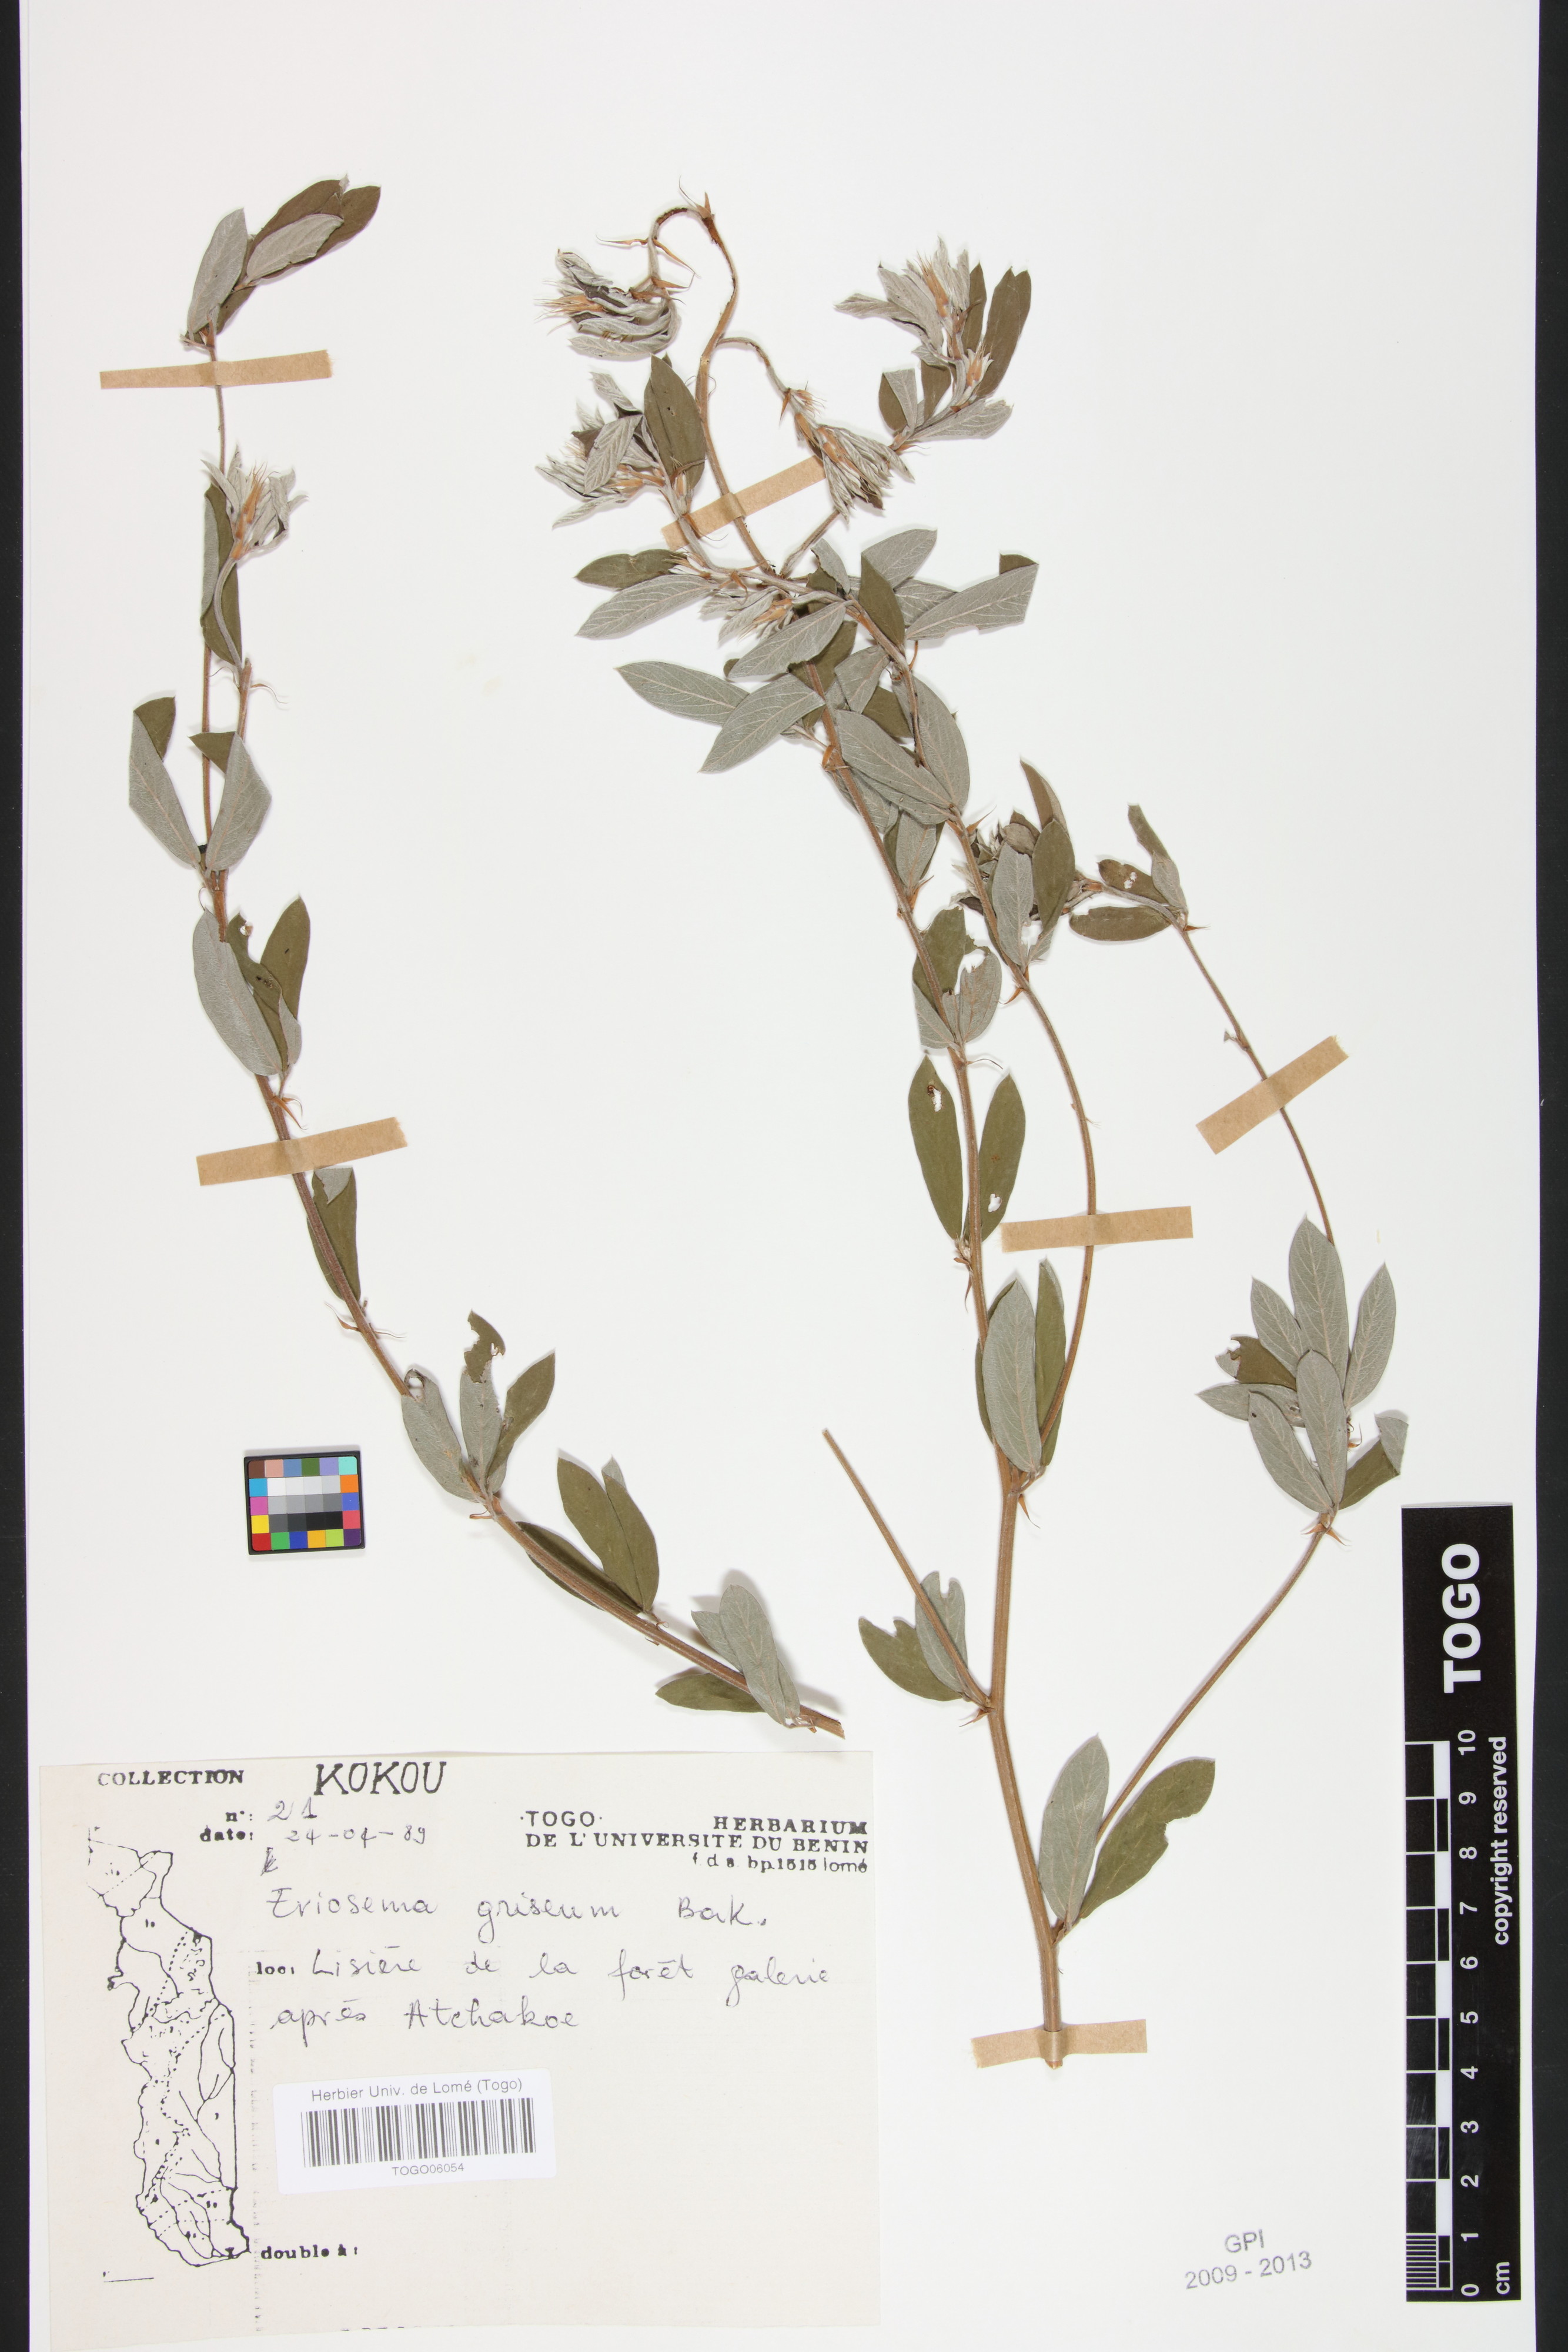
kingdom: Plantae
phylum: Tracheophyta
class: Magnoliopsida
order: Fabales
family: Fabaceae
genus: Eriosema
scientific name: Eriosema griseum
